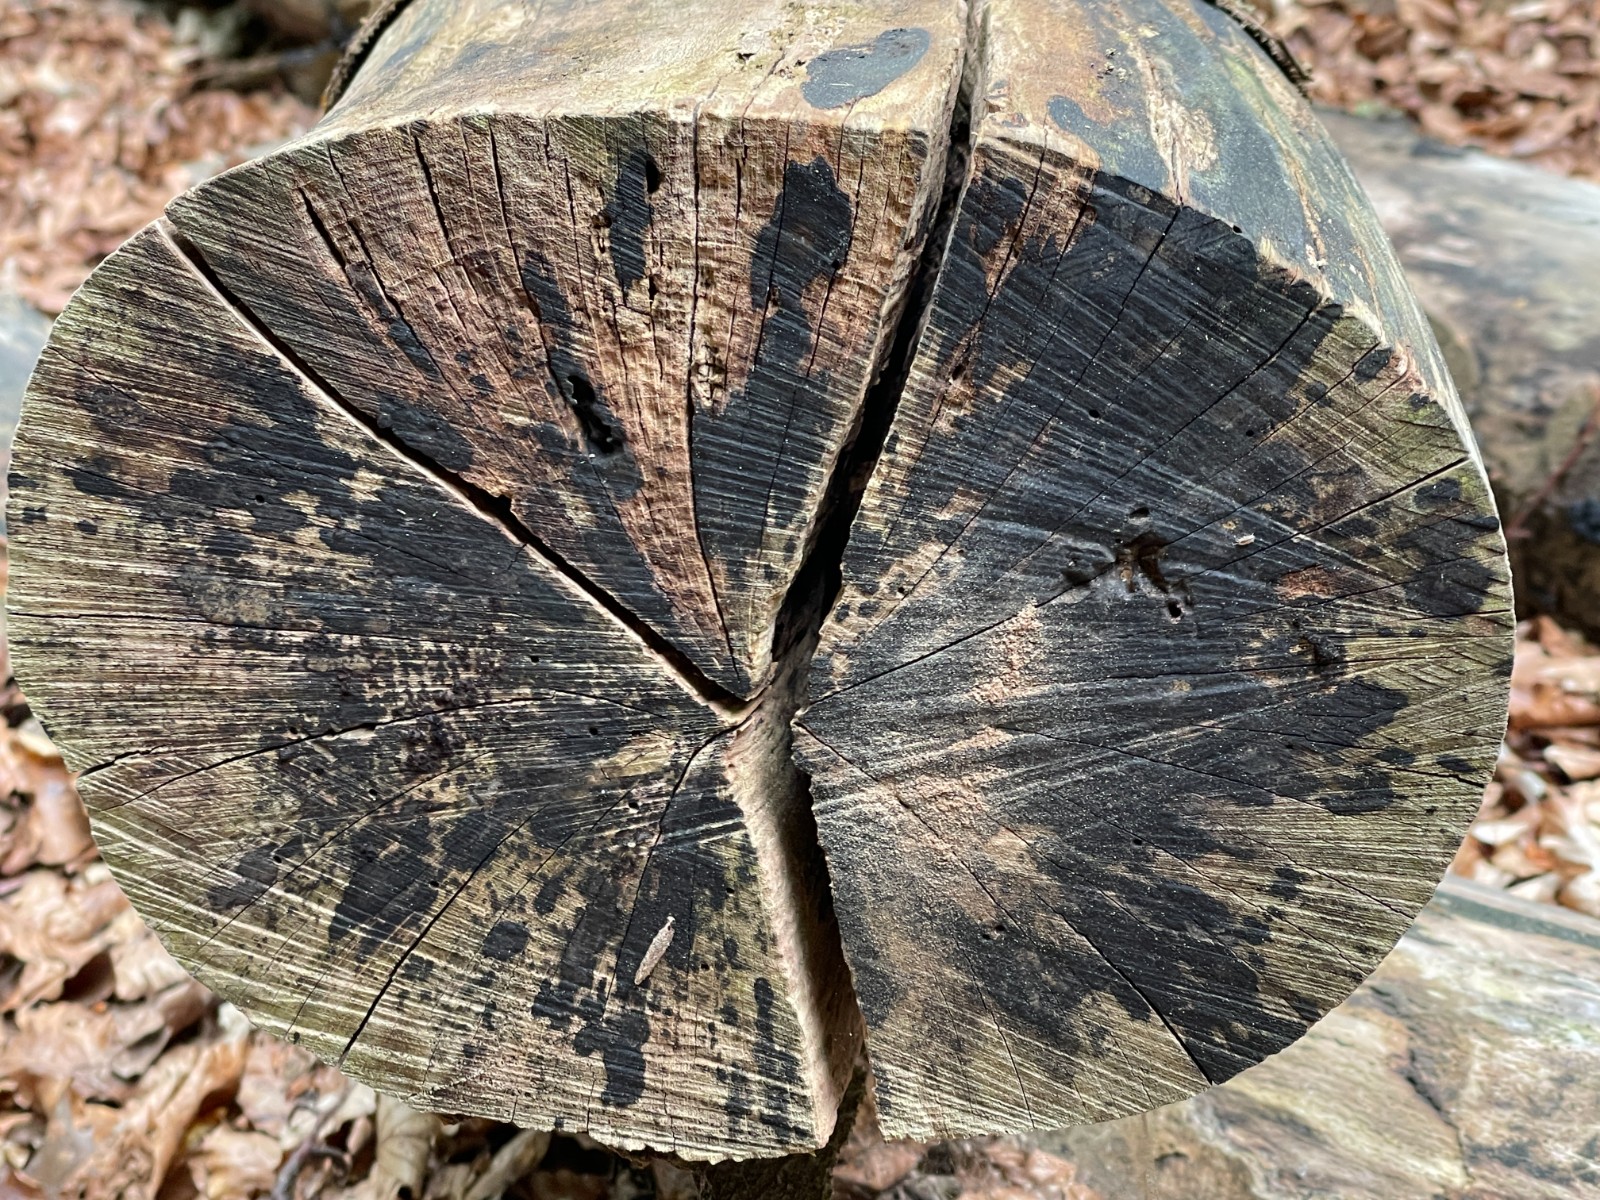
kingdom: Fungi
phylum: Ascomycota
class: Leotiomycetes
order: Helotiales
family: Helotiaceae
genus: Bispora
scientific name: Bispora pallescens
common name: måtte-snitskive
